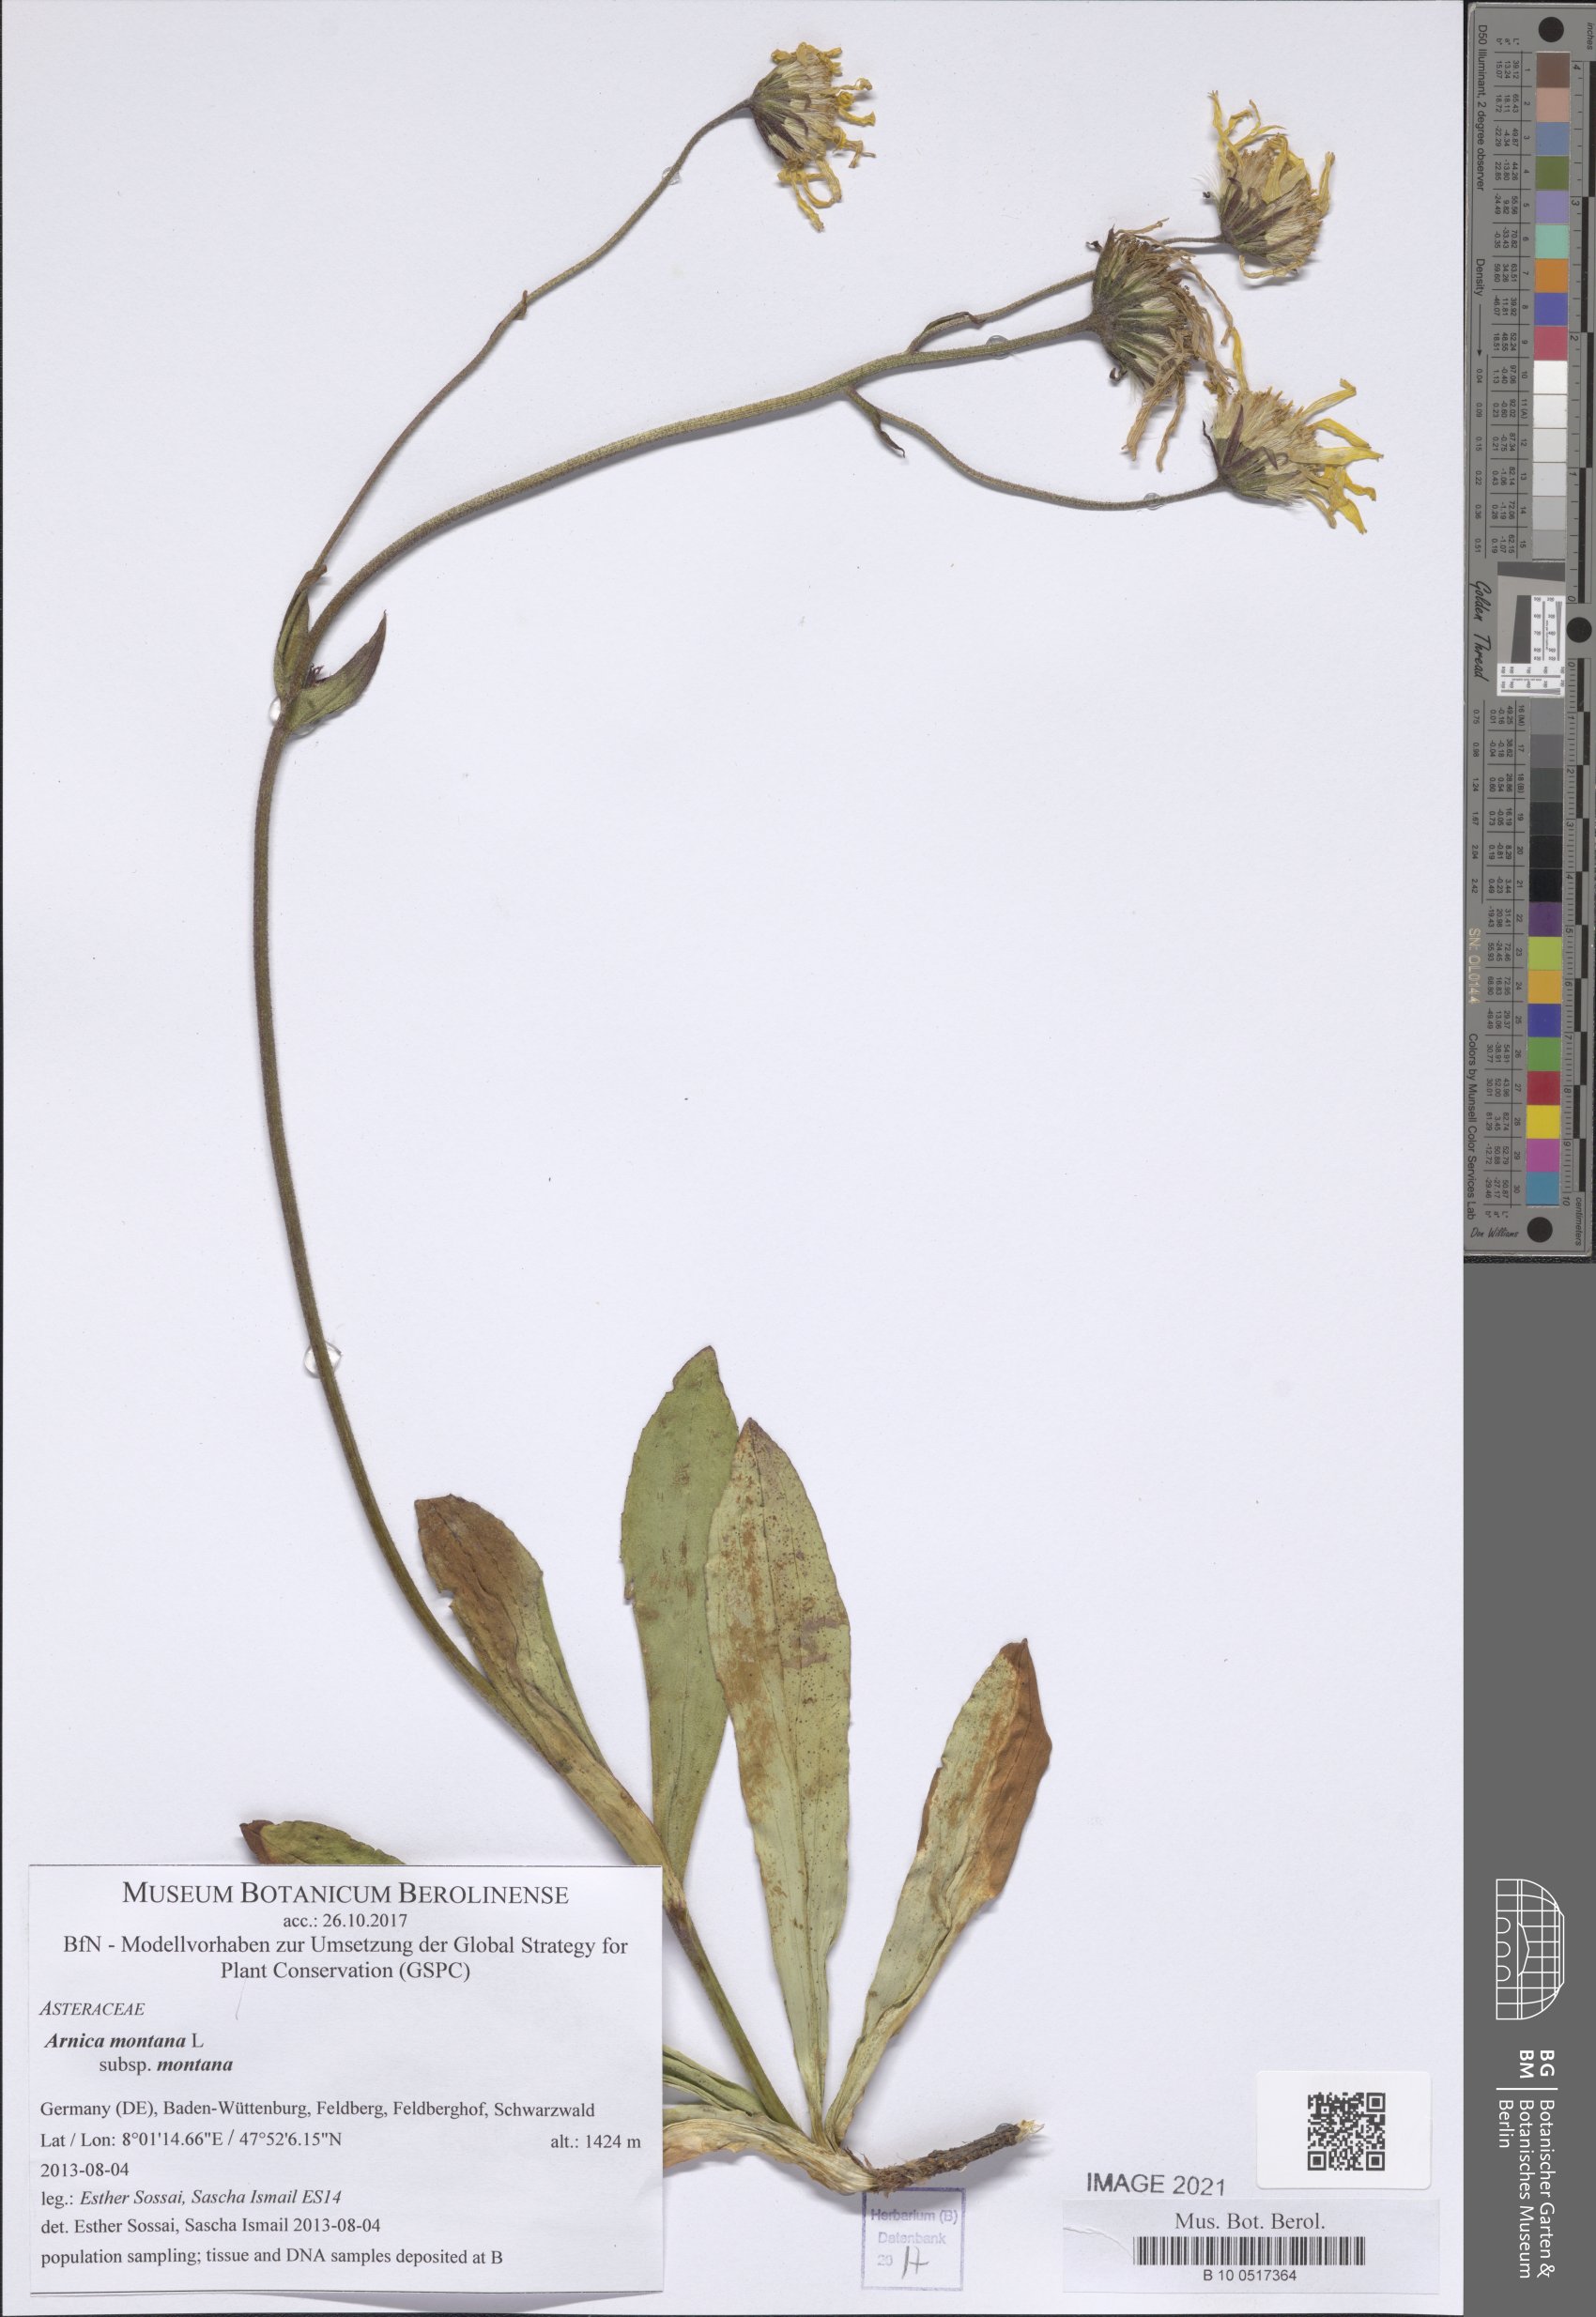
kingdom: Plantae
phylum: Tracheophyta
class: Magnoliopsida
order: Asterales
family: Asteraceae
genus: Arnica
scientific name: Arnica montana
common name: Leopard's bane
